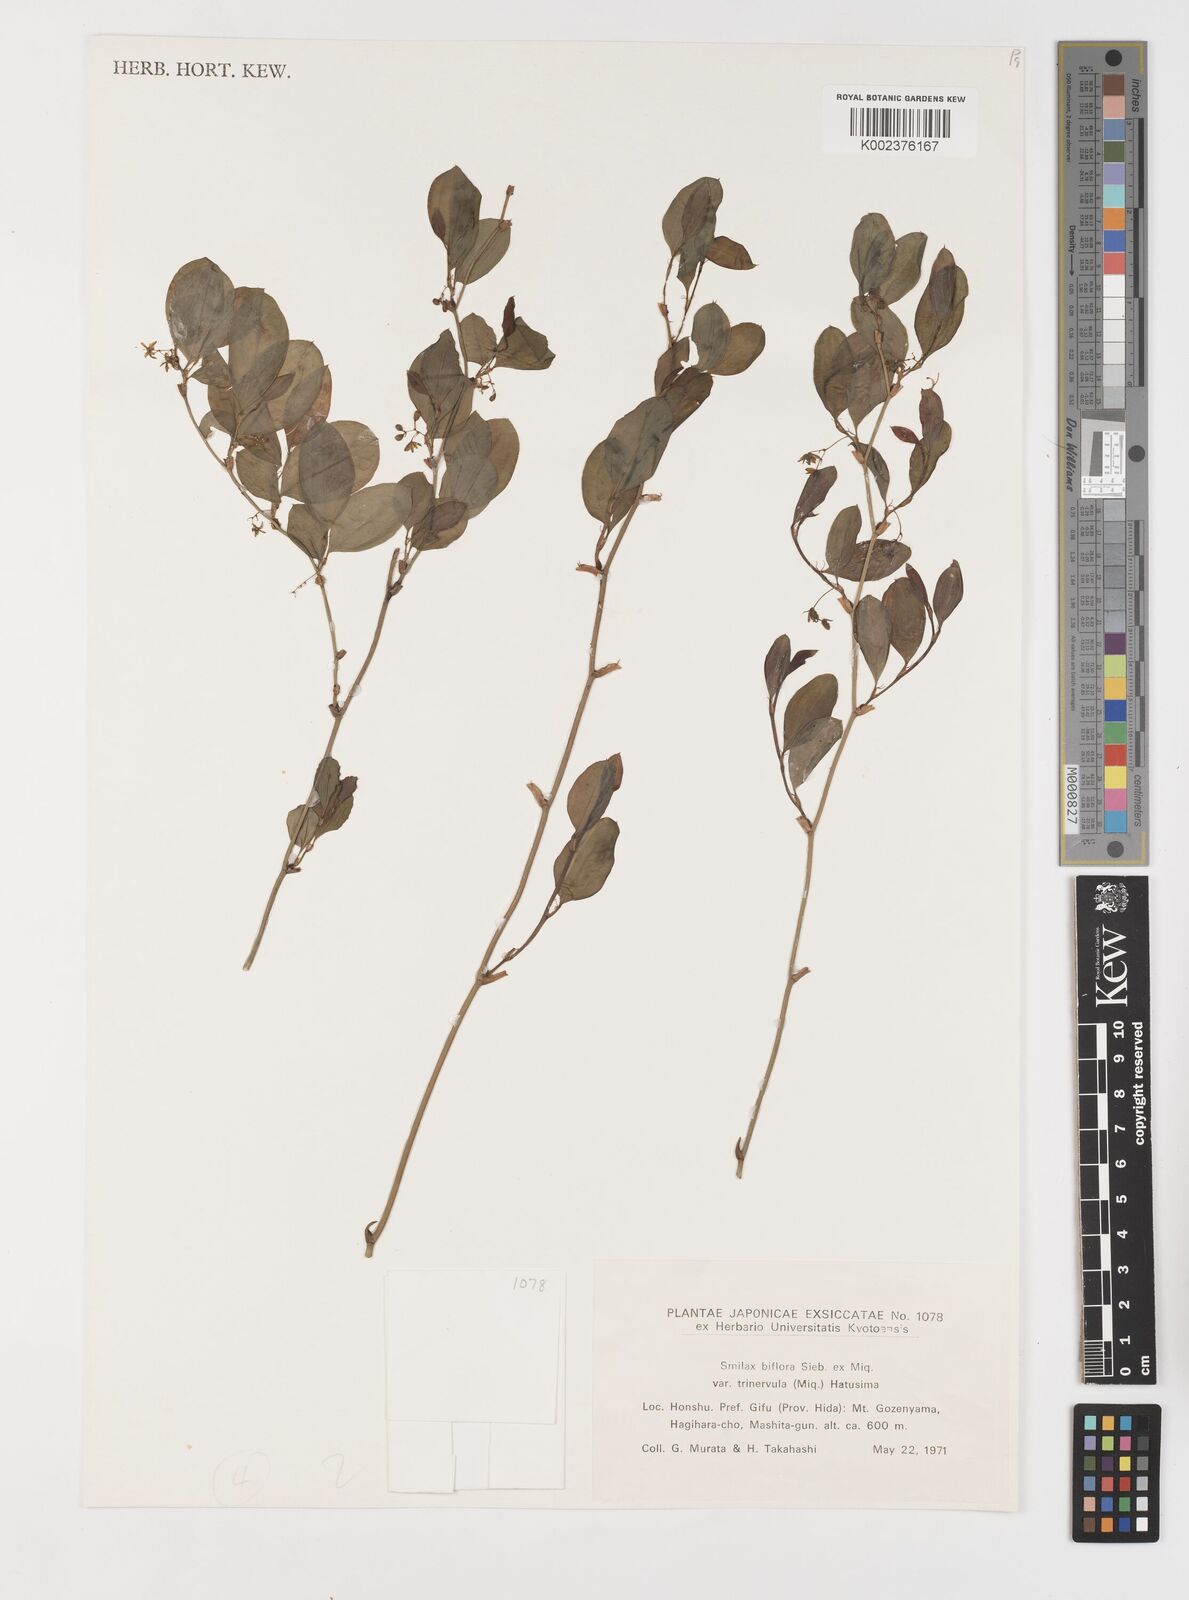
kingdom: Plantae
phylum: Tracheophyta
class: Liliopsida
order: Liliales
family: Smilacaceae
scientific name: Smilacaceae
